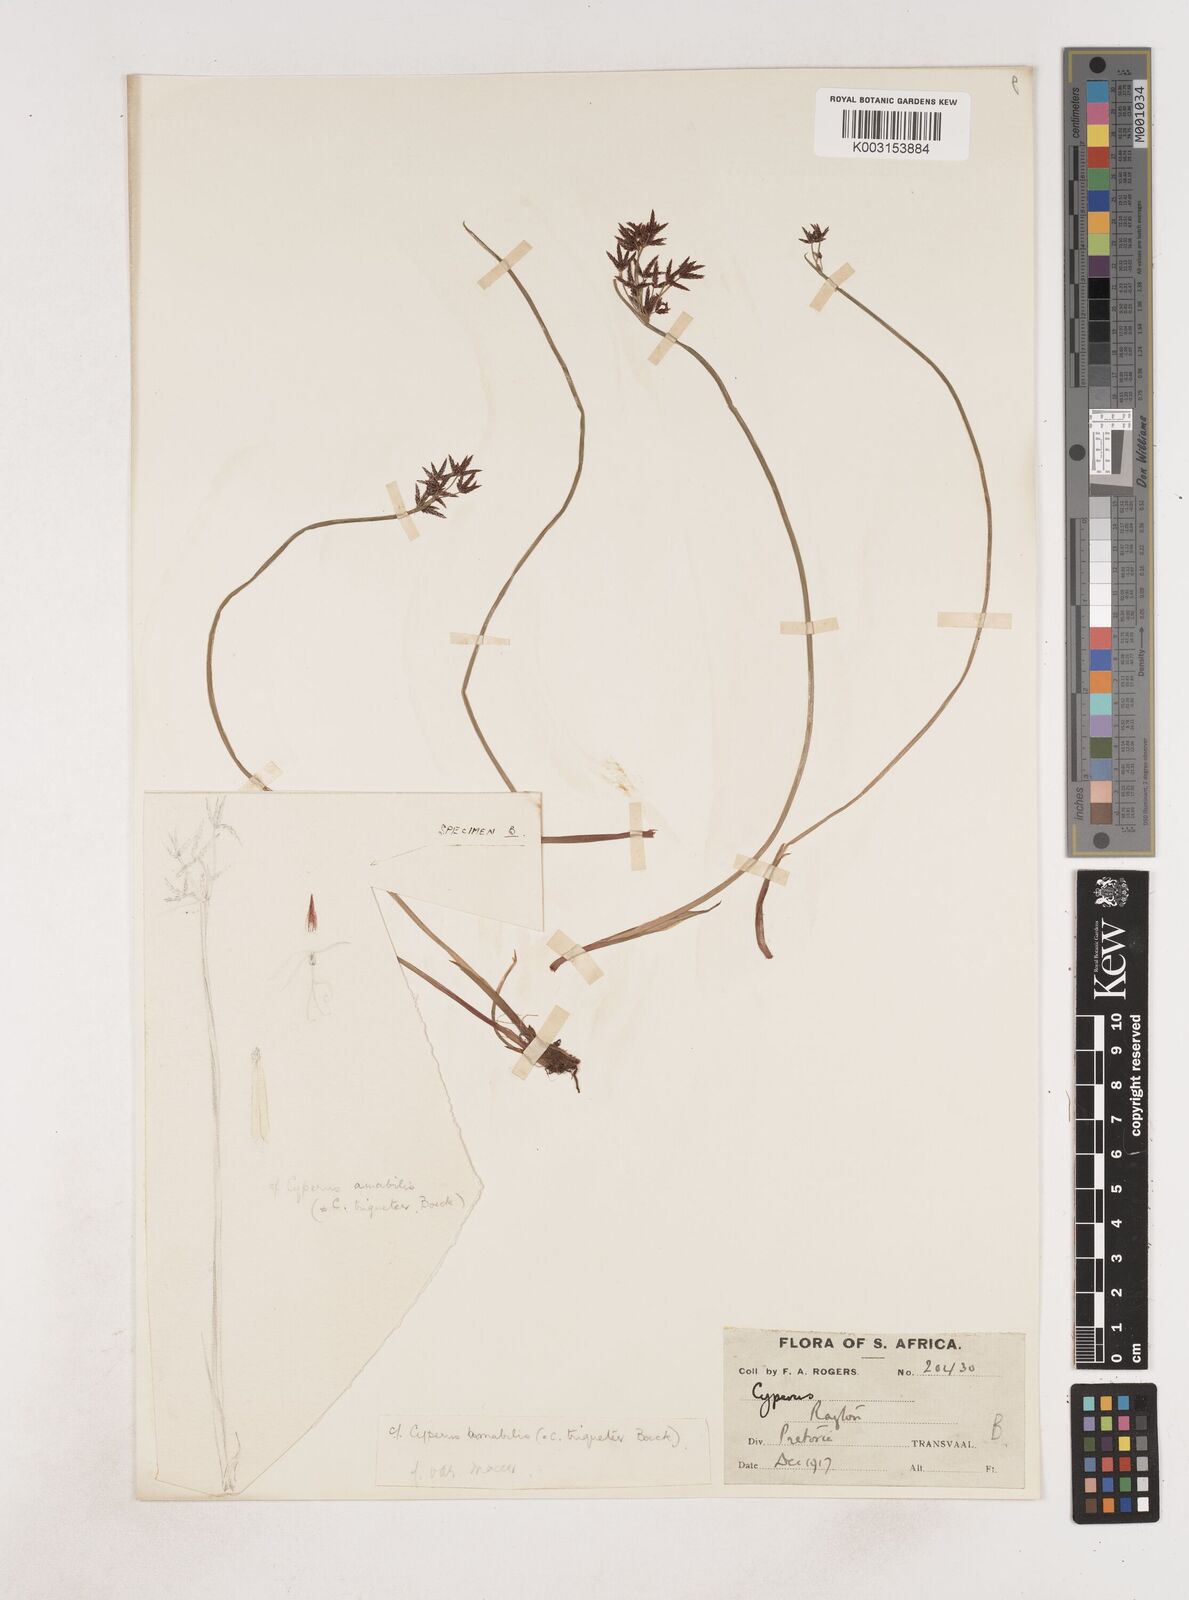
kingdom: Plantae
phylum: Tracheophyta
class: Liliopsida
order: Poales
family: Cyperaceae
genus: Cyperus
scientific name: Cyperus
